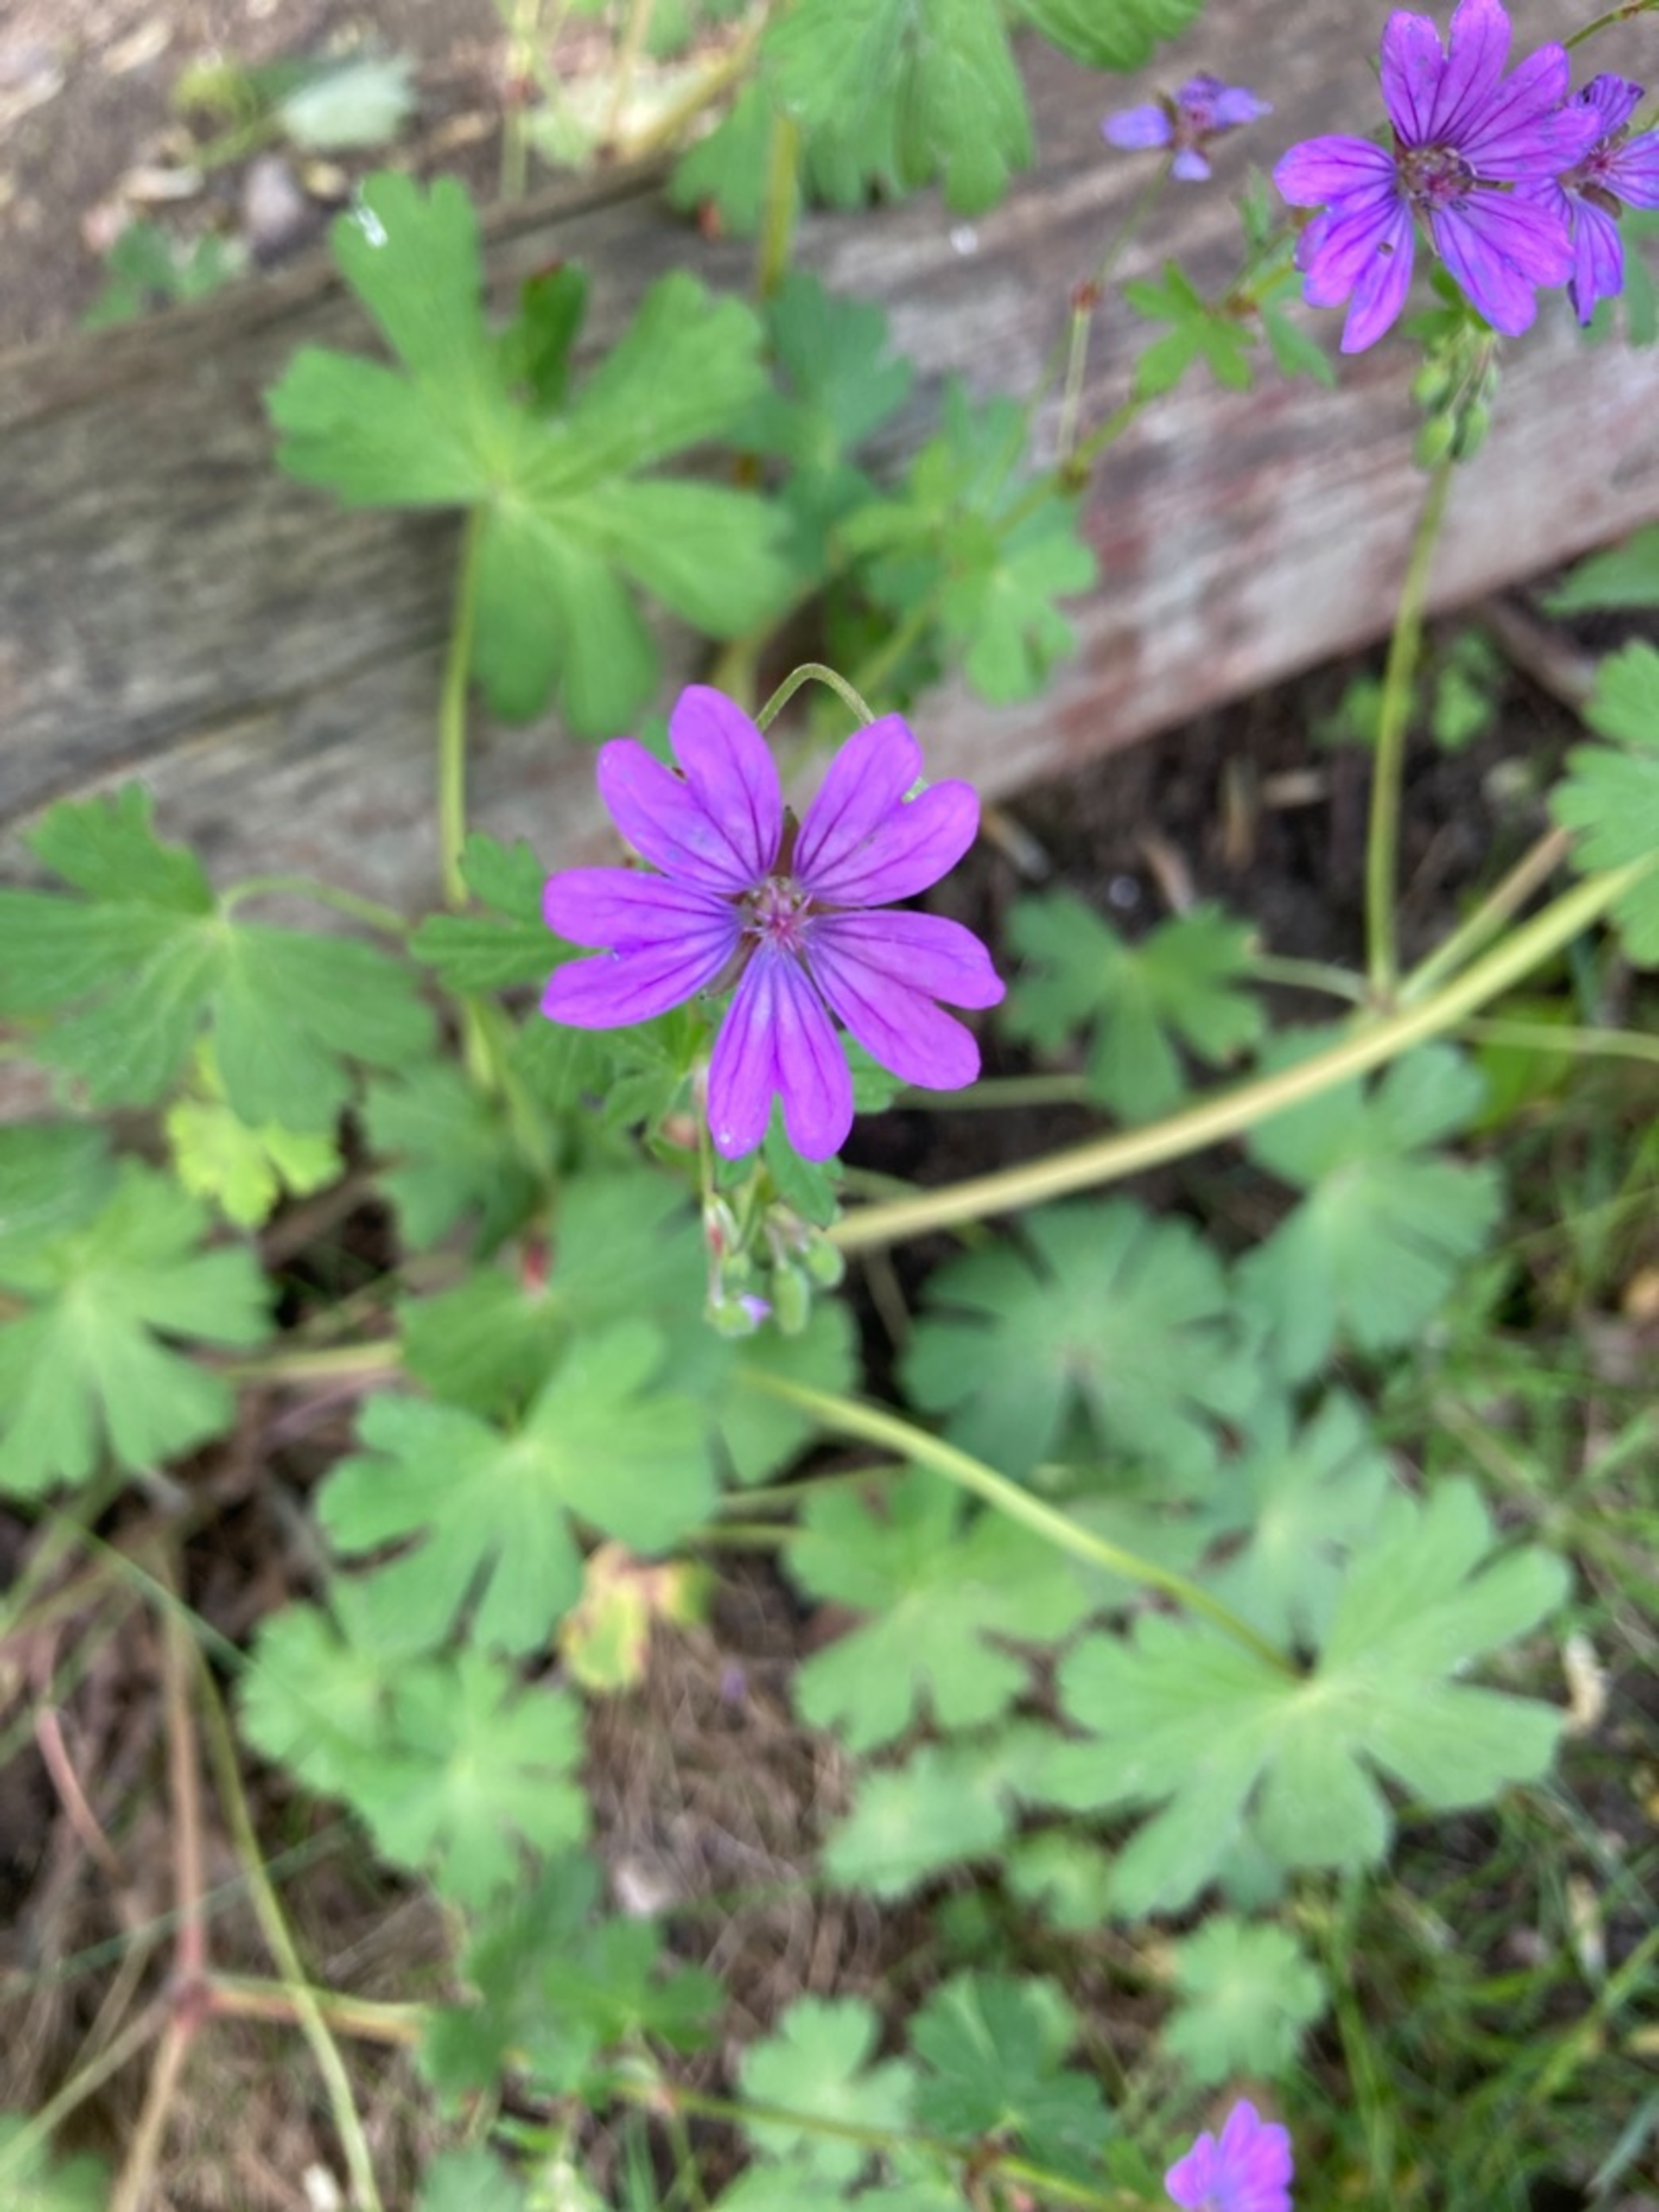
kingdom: Plantae
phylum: Tracheophyta
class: Magnoliopsida
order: Geraniales
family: Geraniaceae
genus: Geranium
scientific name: Geranium pyrenaicum
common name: Pyrenæisk storkenæb
